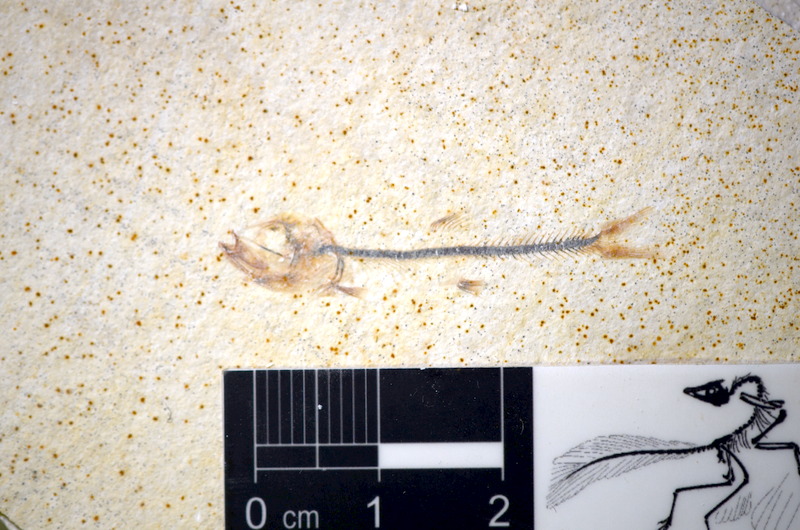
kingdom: Animalia
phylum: Chordata
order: Salmoniformes
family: Orthogonikleithridae
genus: Orthogonikleithrus
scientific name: Orthogonikleithrus hoelli
